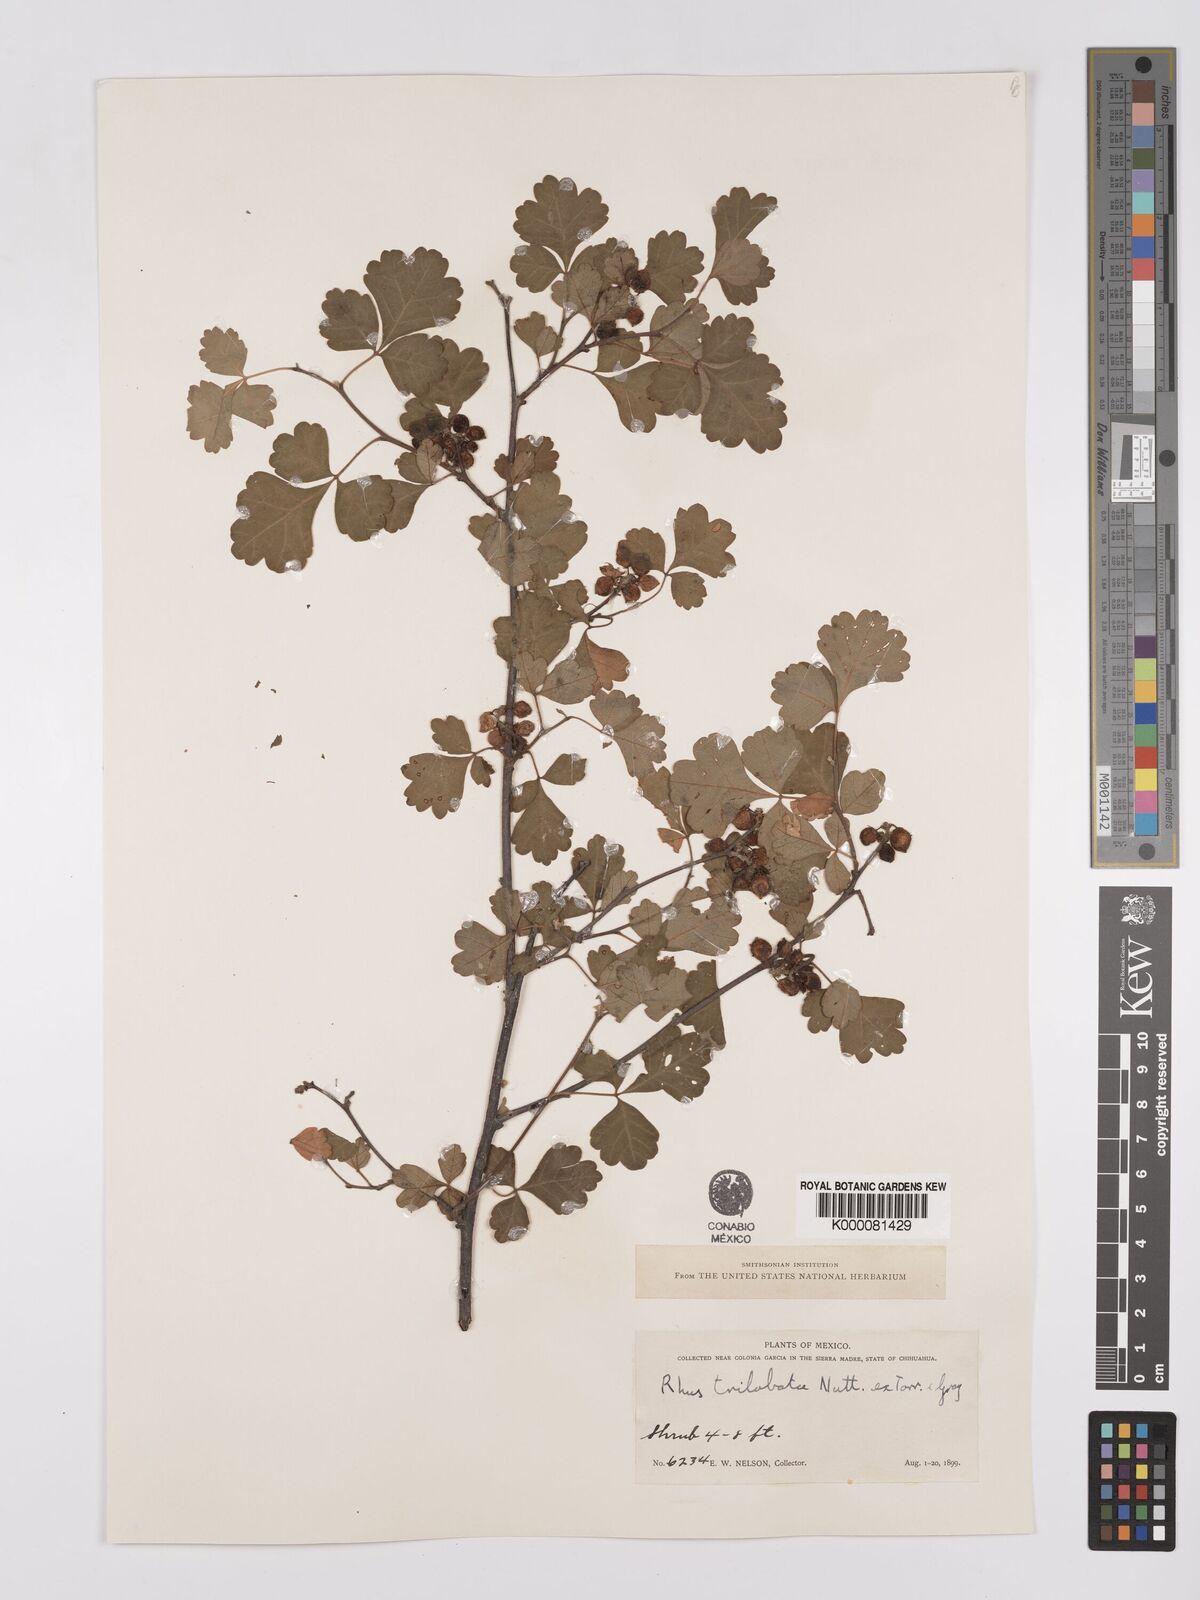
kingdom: Plantae
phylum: Tracheophyta
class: Magnoliopsida
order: Sapindales
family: Anacardiaceae
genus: Rhus
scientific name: Rhus
